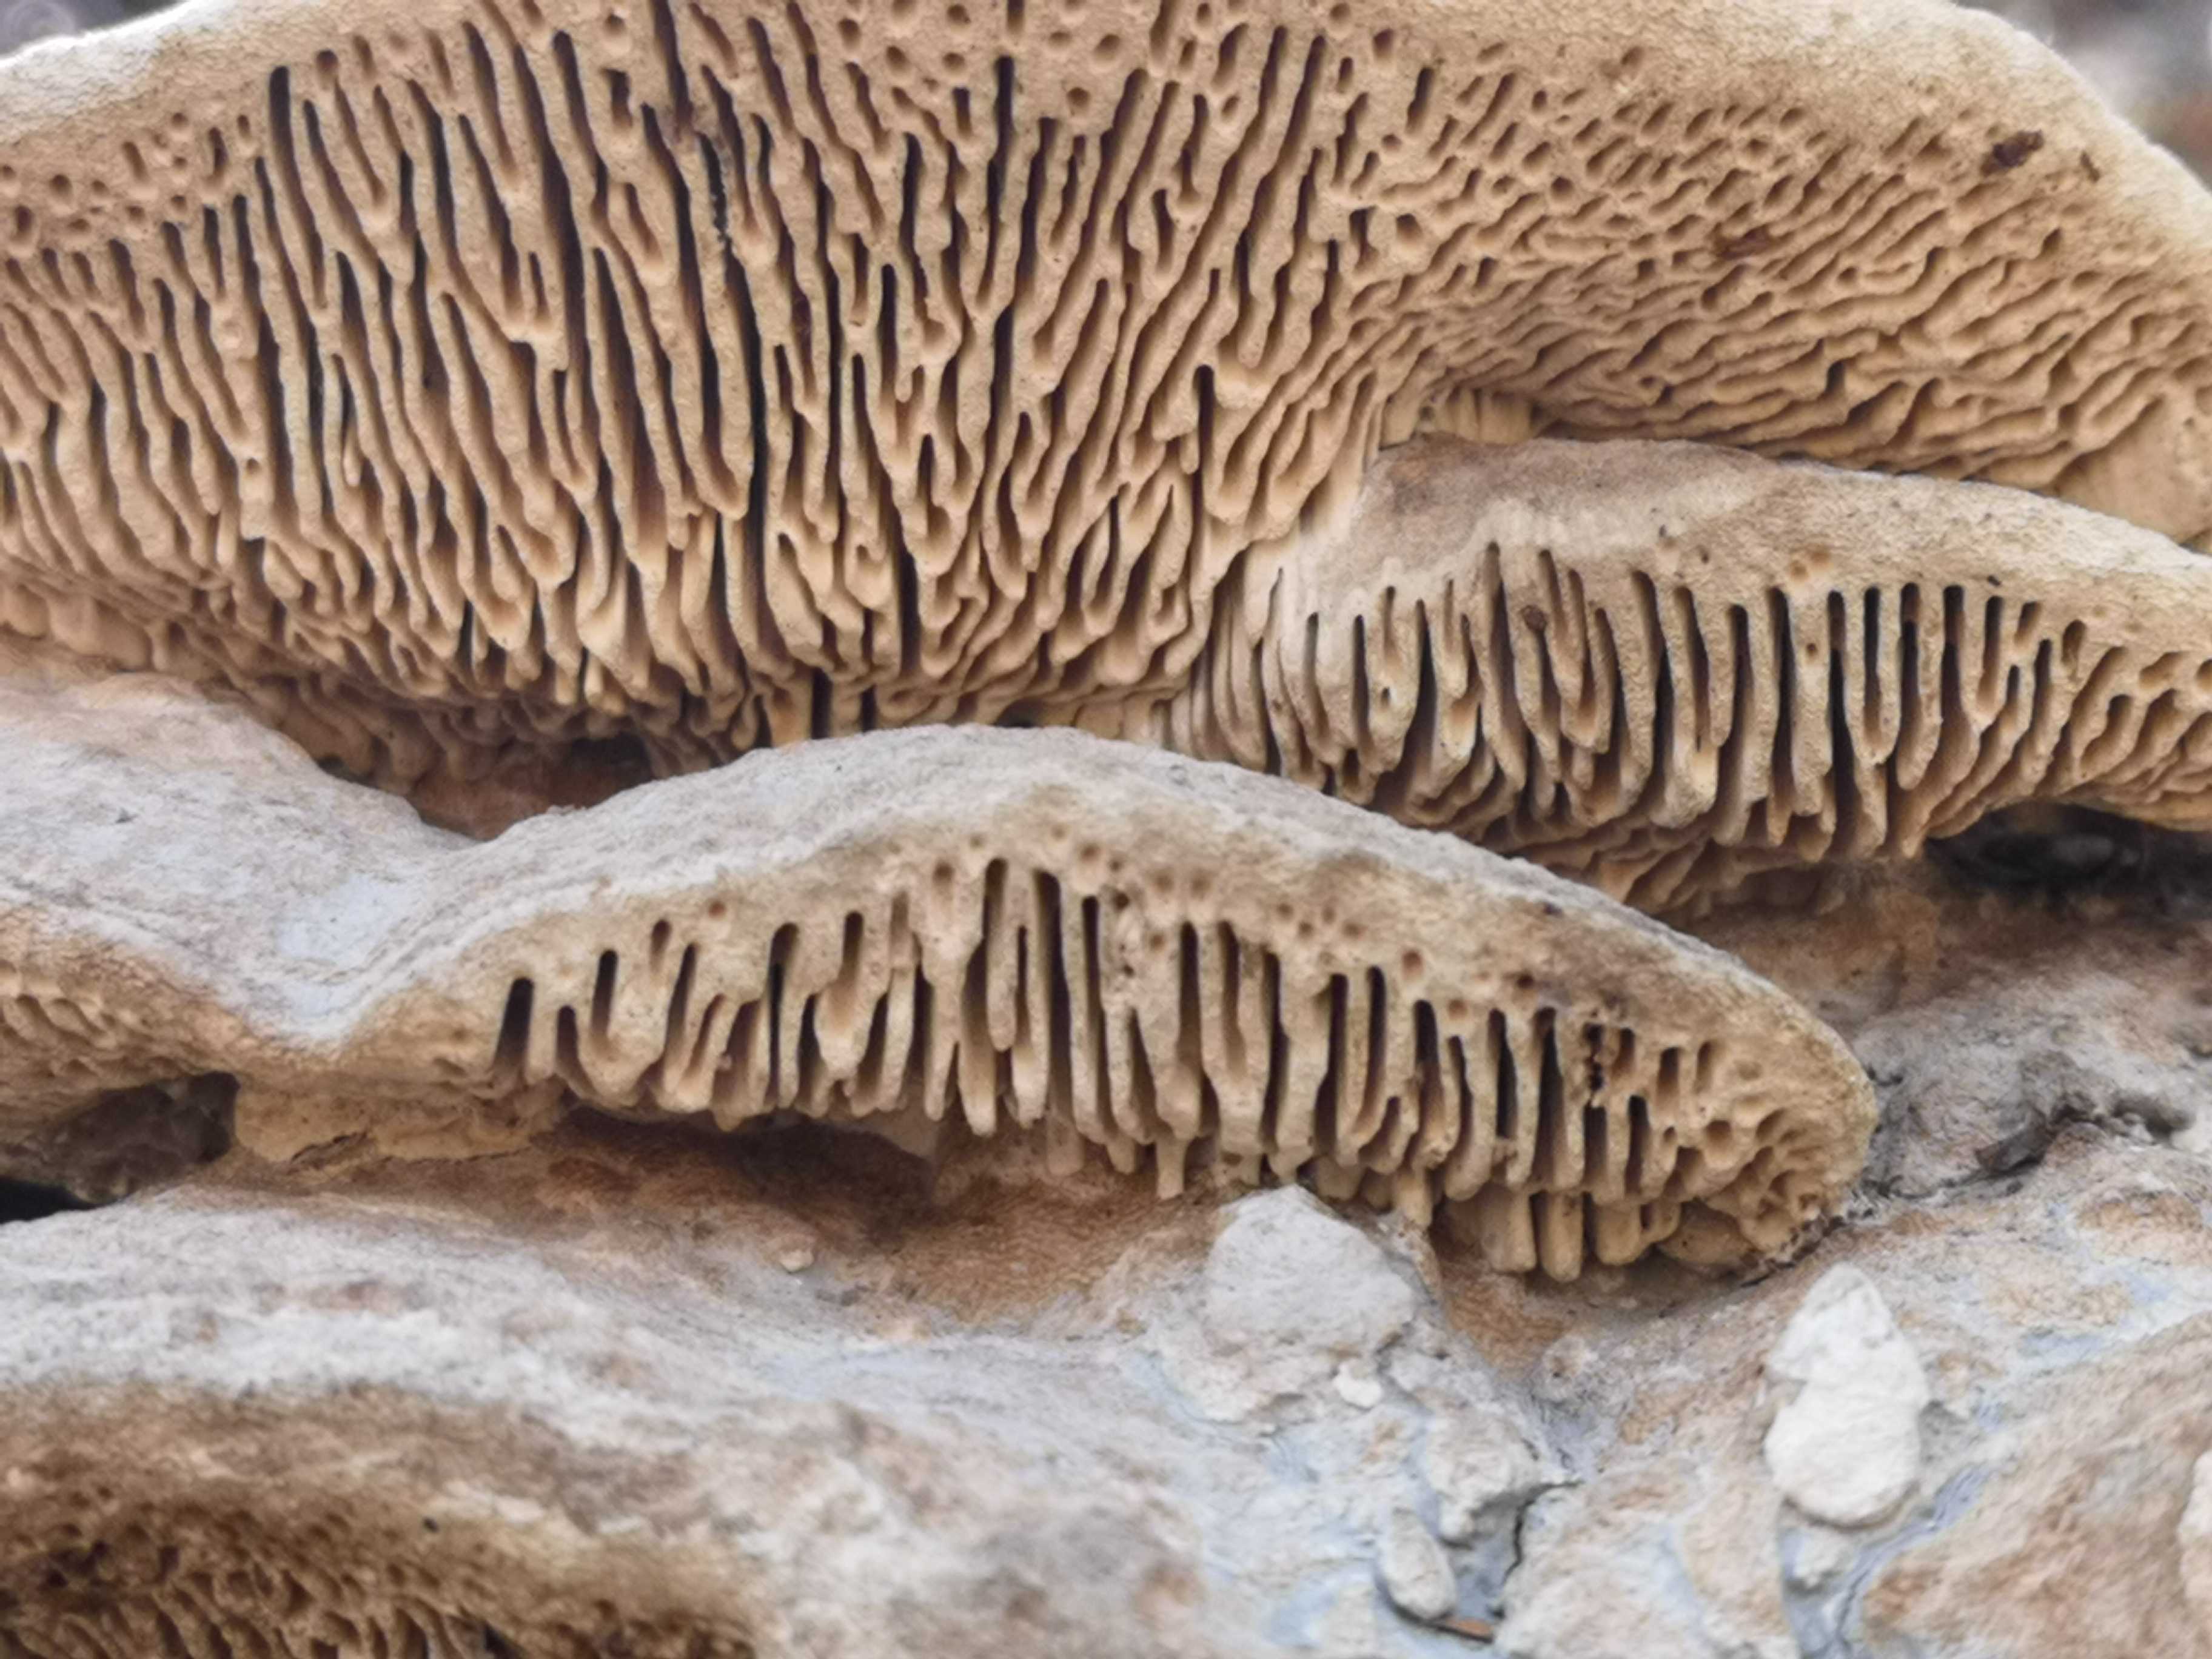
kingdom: Fungi
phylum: Basidiomycota
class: Agaricomycetes
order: Polyporales
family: Fomitopsidaceae
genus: Daedalea
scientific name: Daedalea quercina
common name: ege-labyrintsvamp
